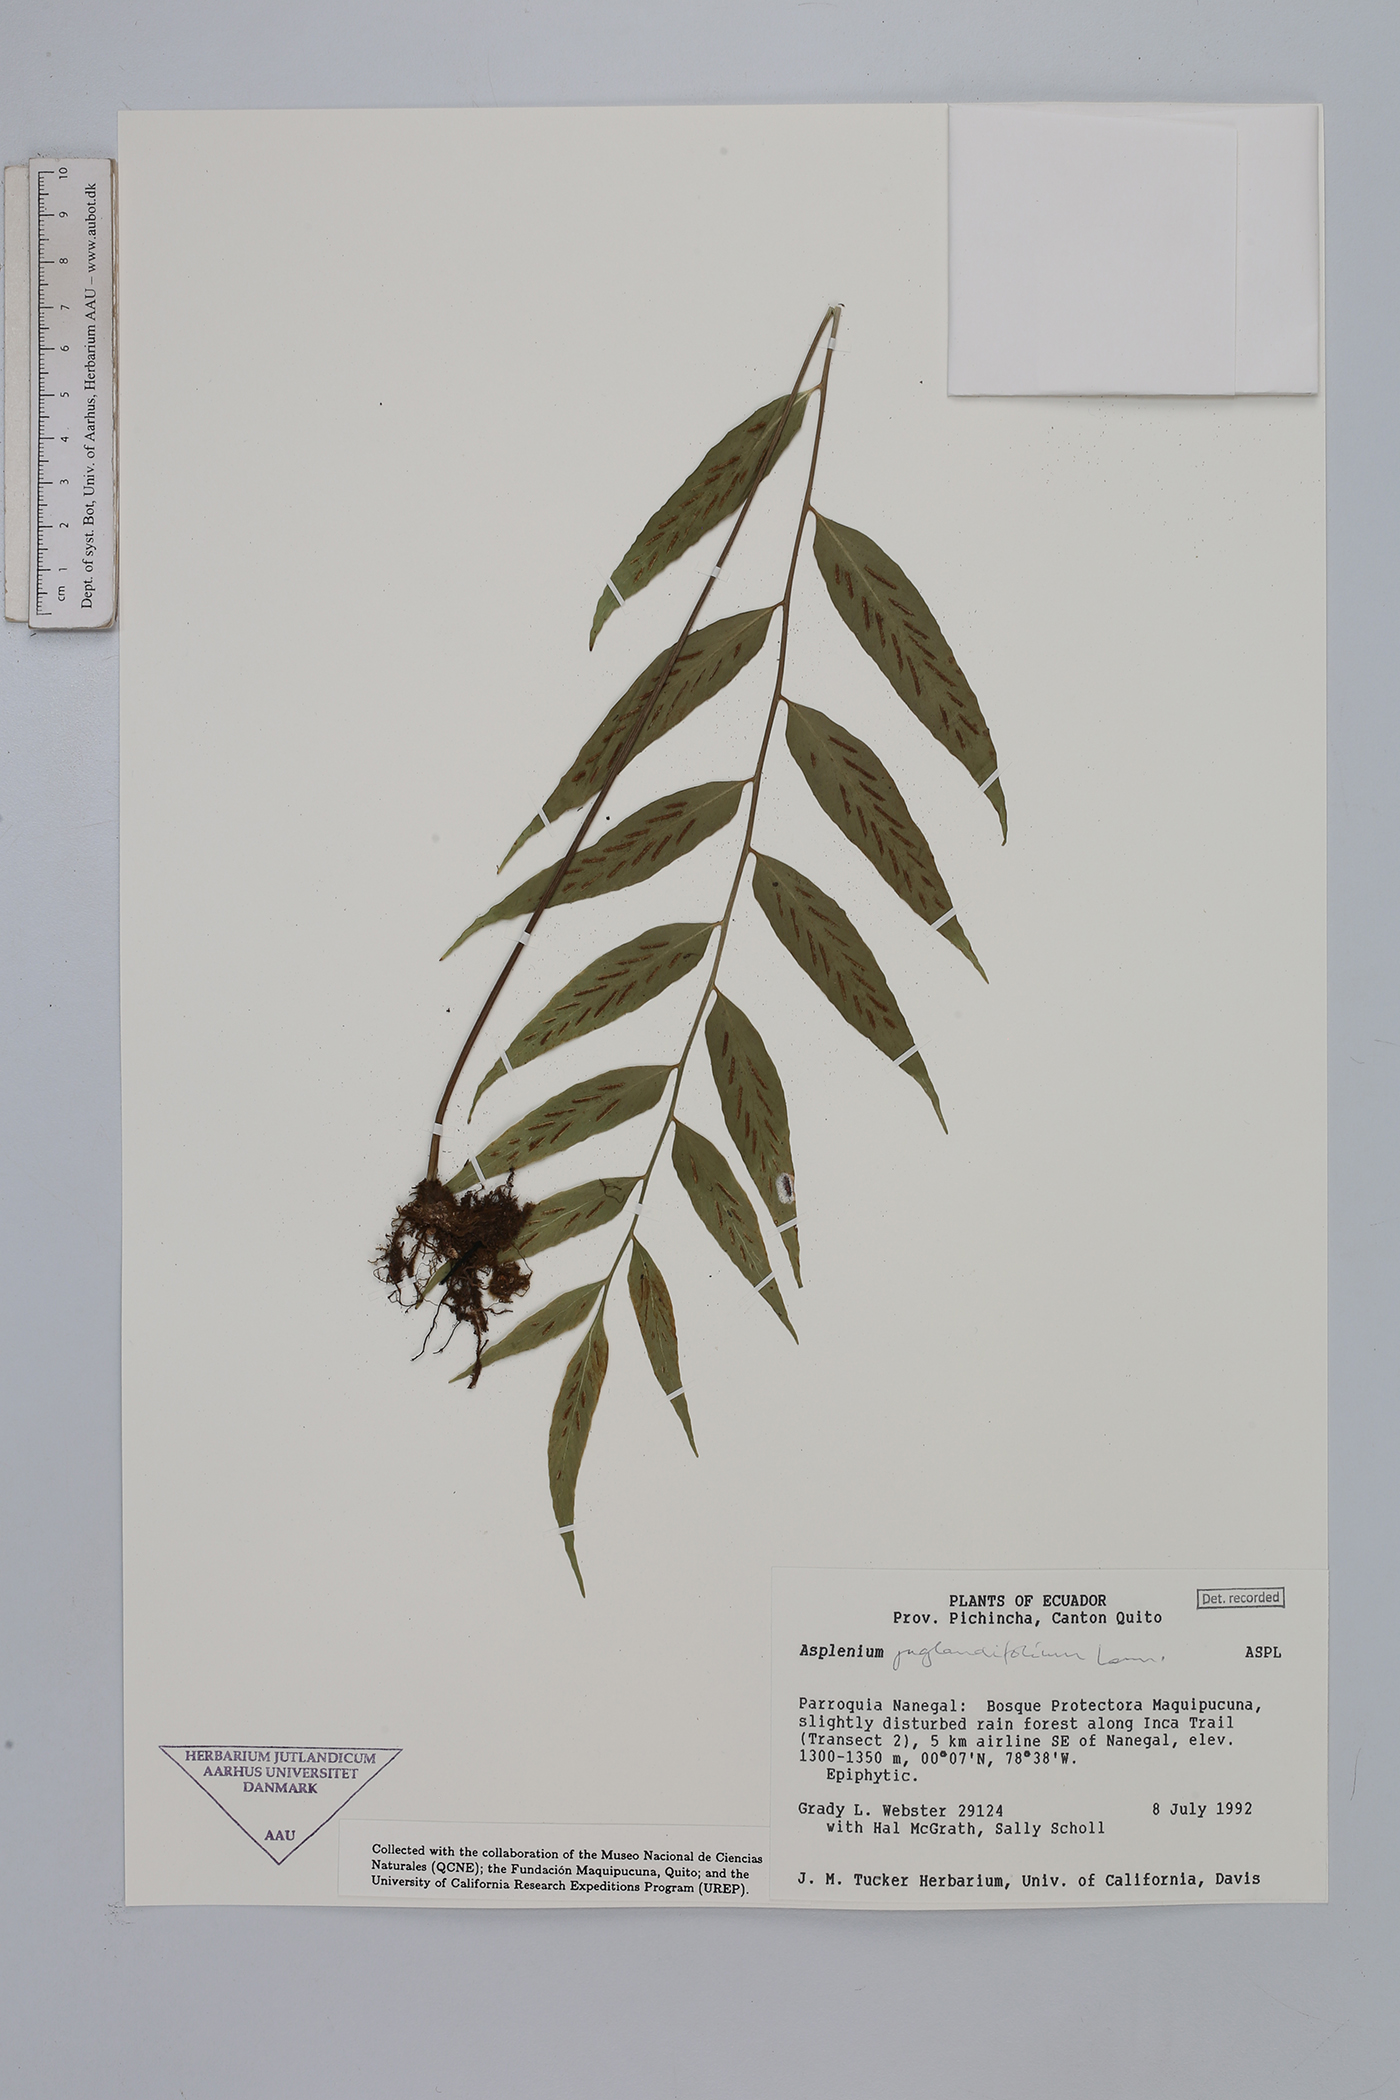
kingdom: Plantae
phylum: Tracheophyta
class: Polypodiopsida
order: Polypodiales
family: Aspleniaceae
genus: Asplenium
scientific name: Asplenium juglandifolium
